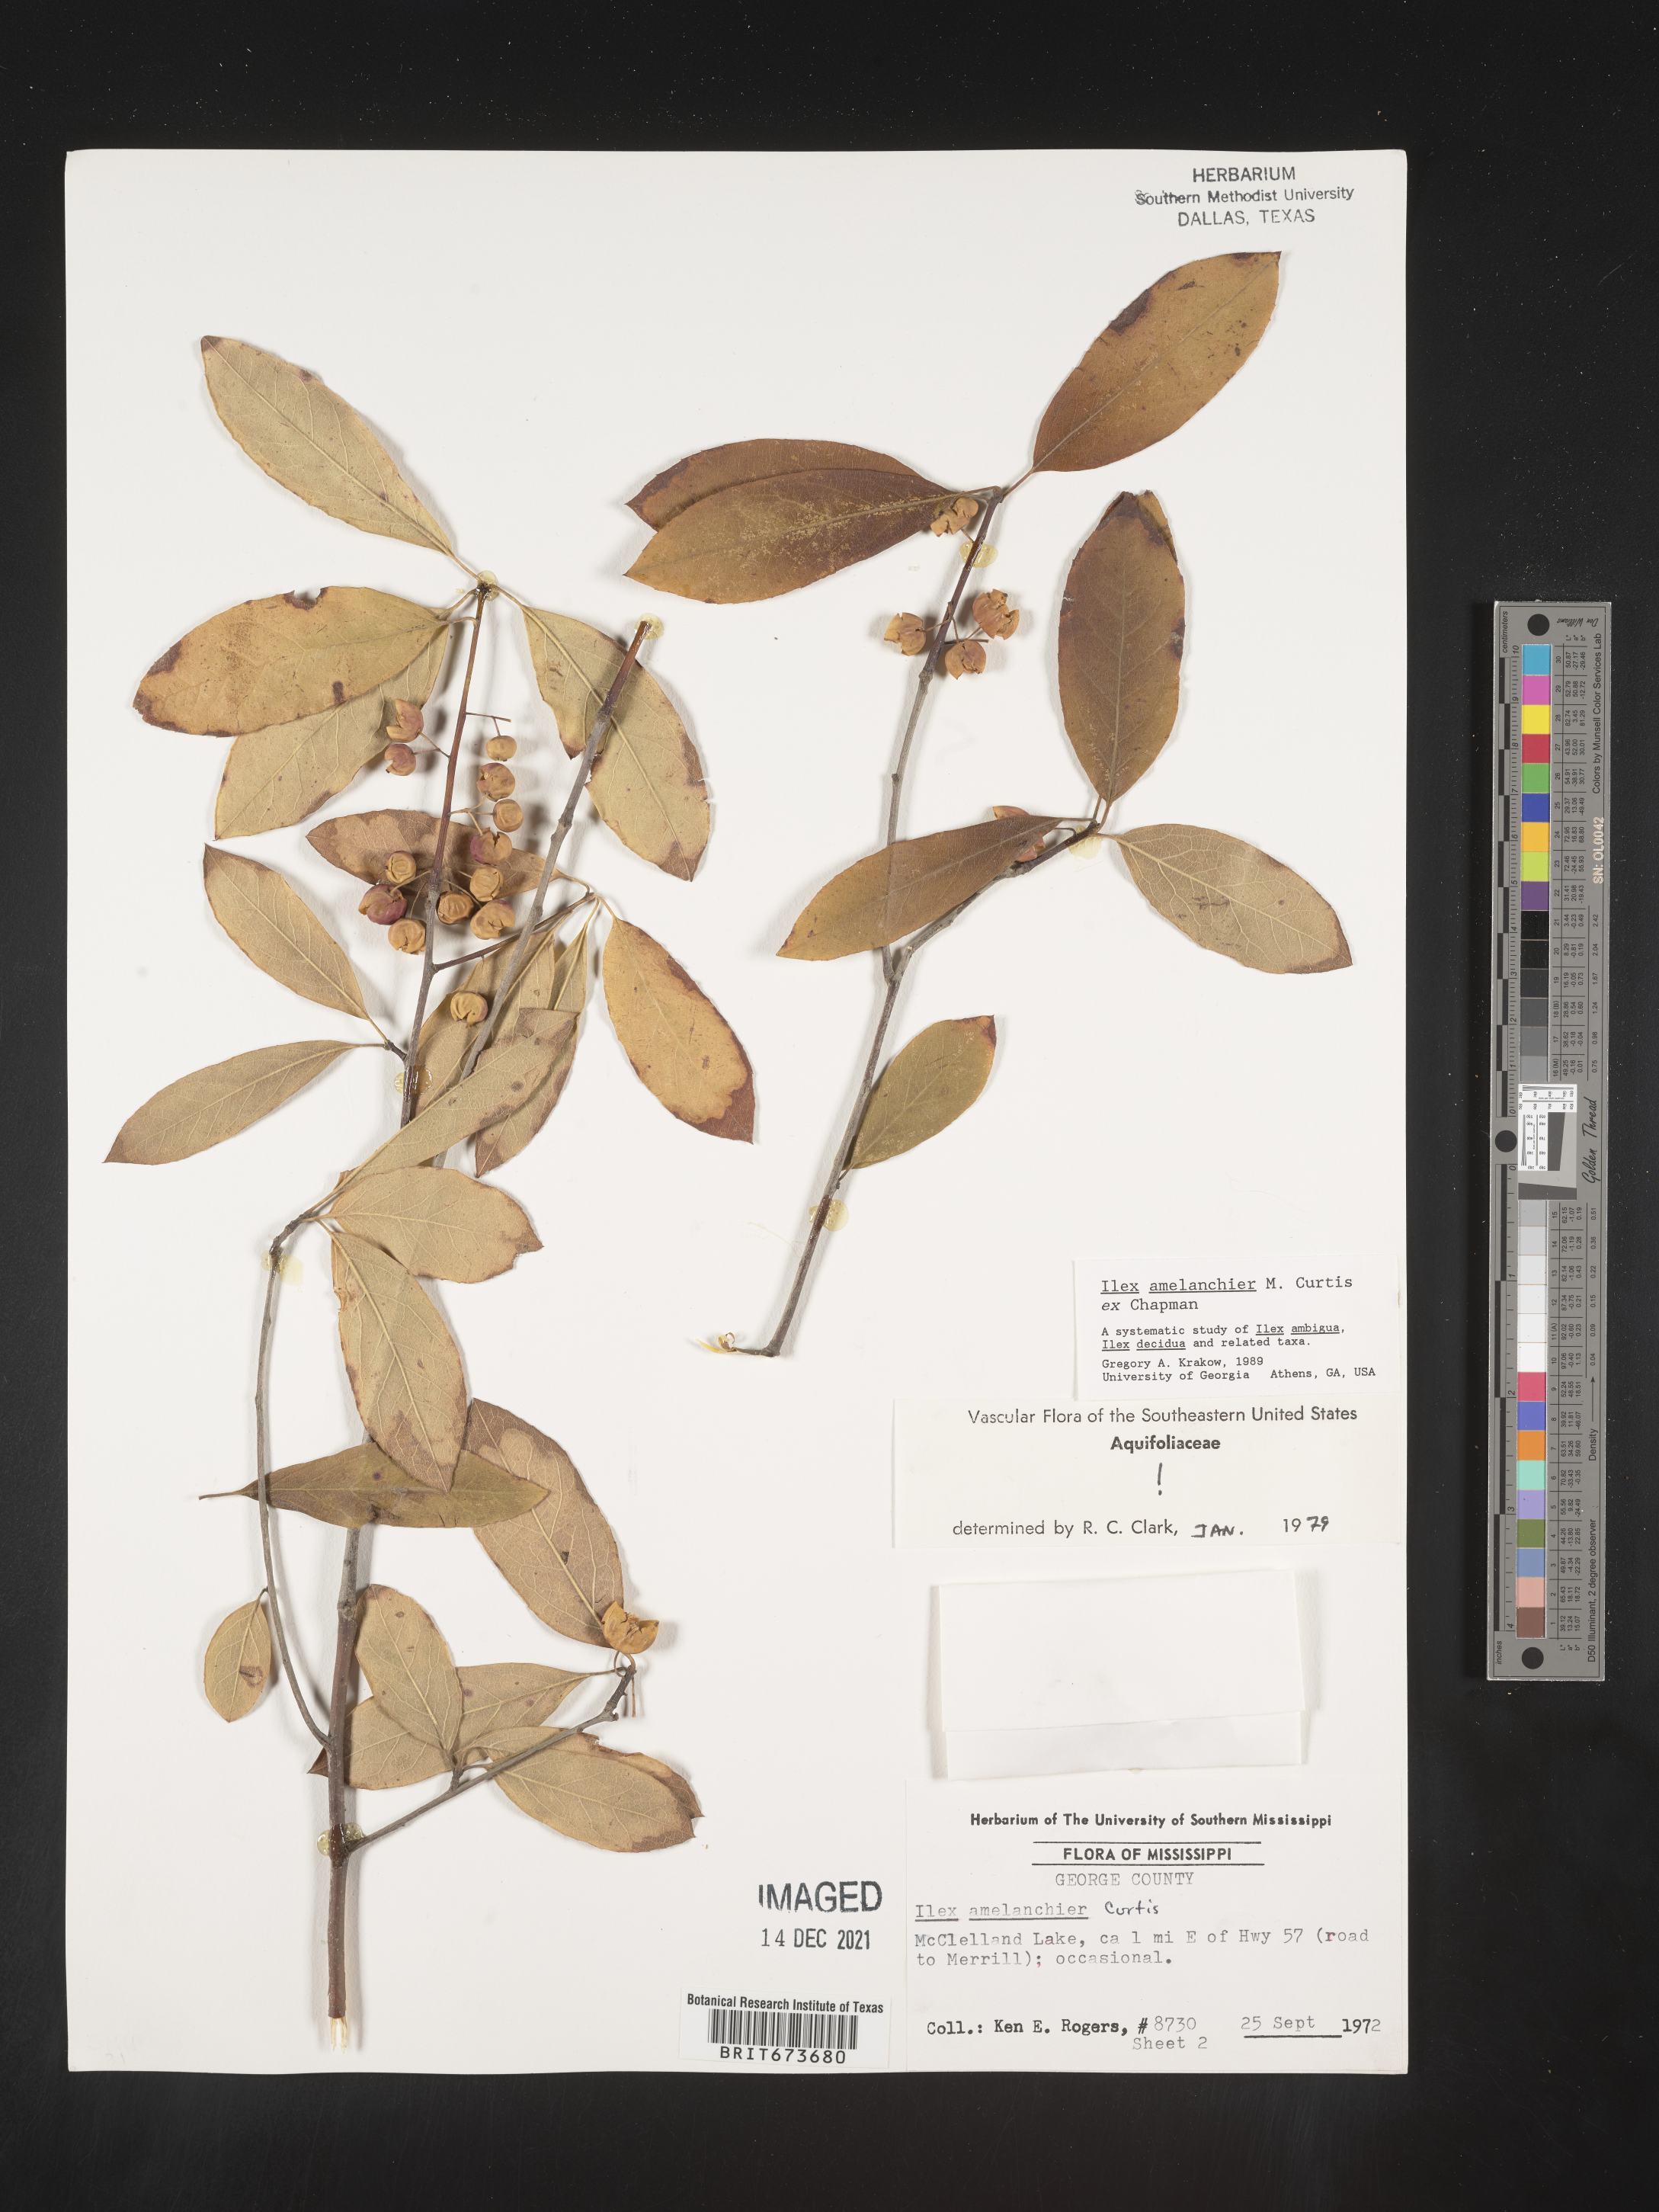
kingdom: Plantae
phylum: Tracheophyta
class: Magnoliopsida
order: Aquifoliales
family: Aquifoliaceae
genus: Ilex
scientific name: Ilex amelanchier
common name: Sarvis holly
